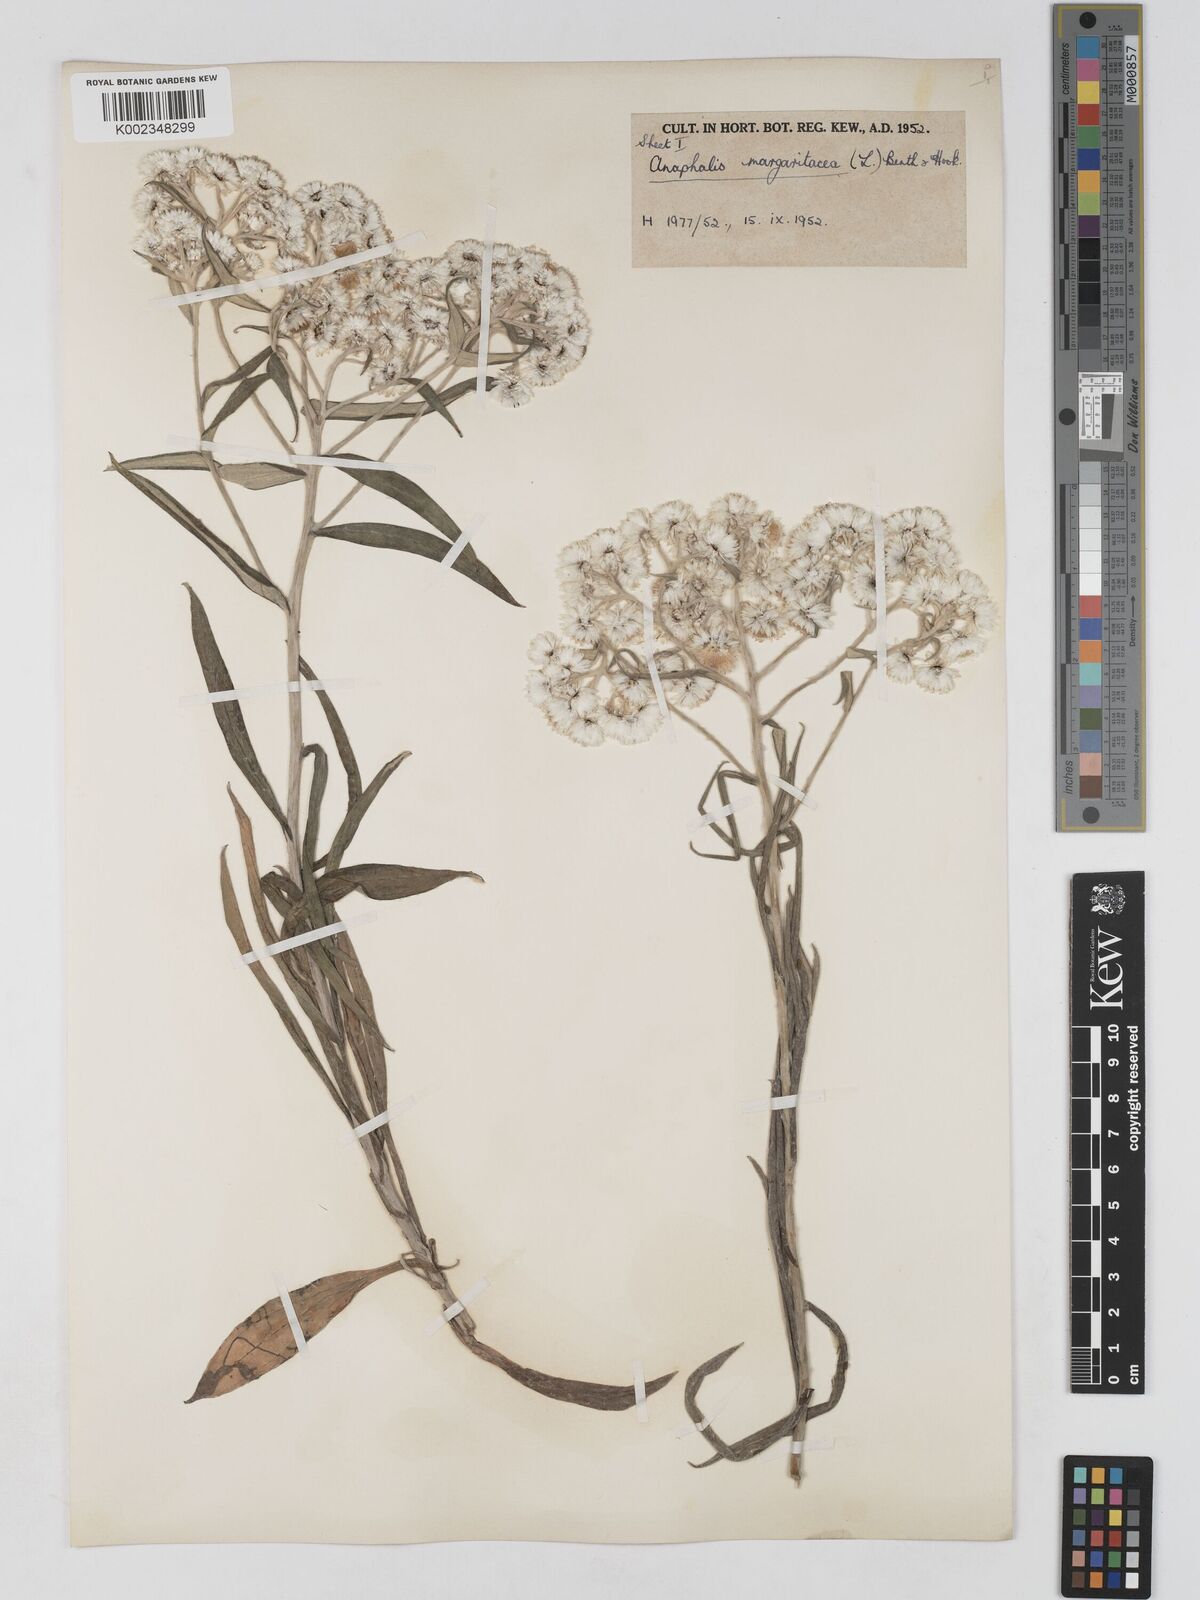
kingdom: Plantae
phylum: Tracheophyta
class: Magnoliopsida
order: Asterales
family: Asteraceae
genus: Anaphalis
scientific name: Anaphalis margaritacea
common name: Pearly everlasting
